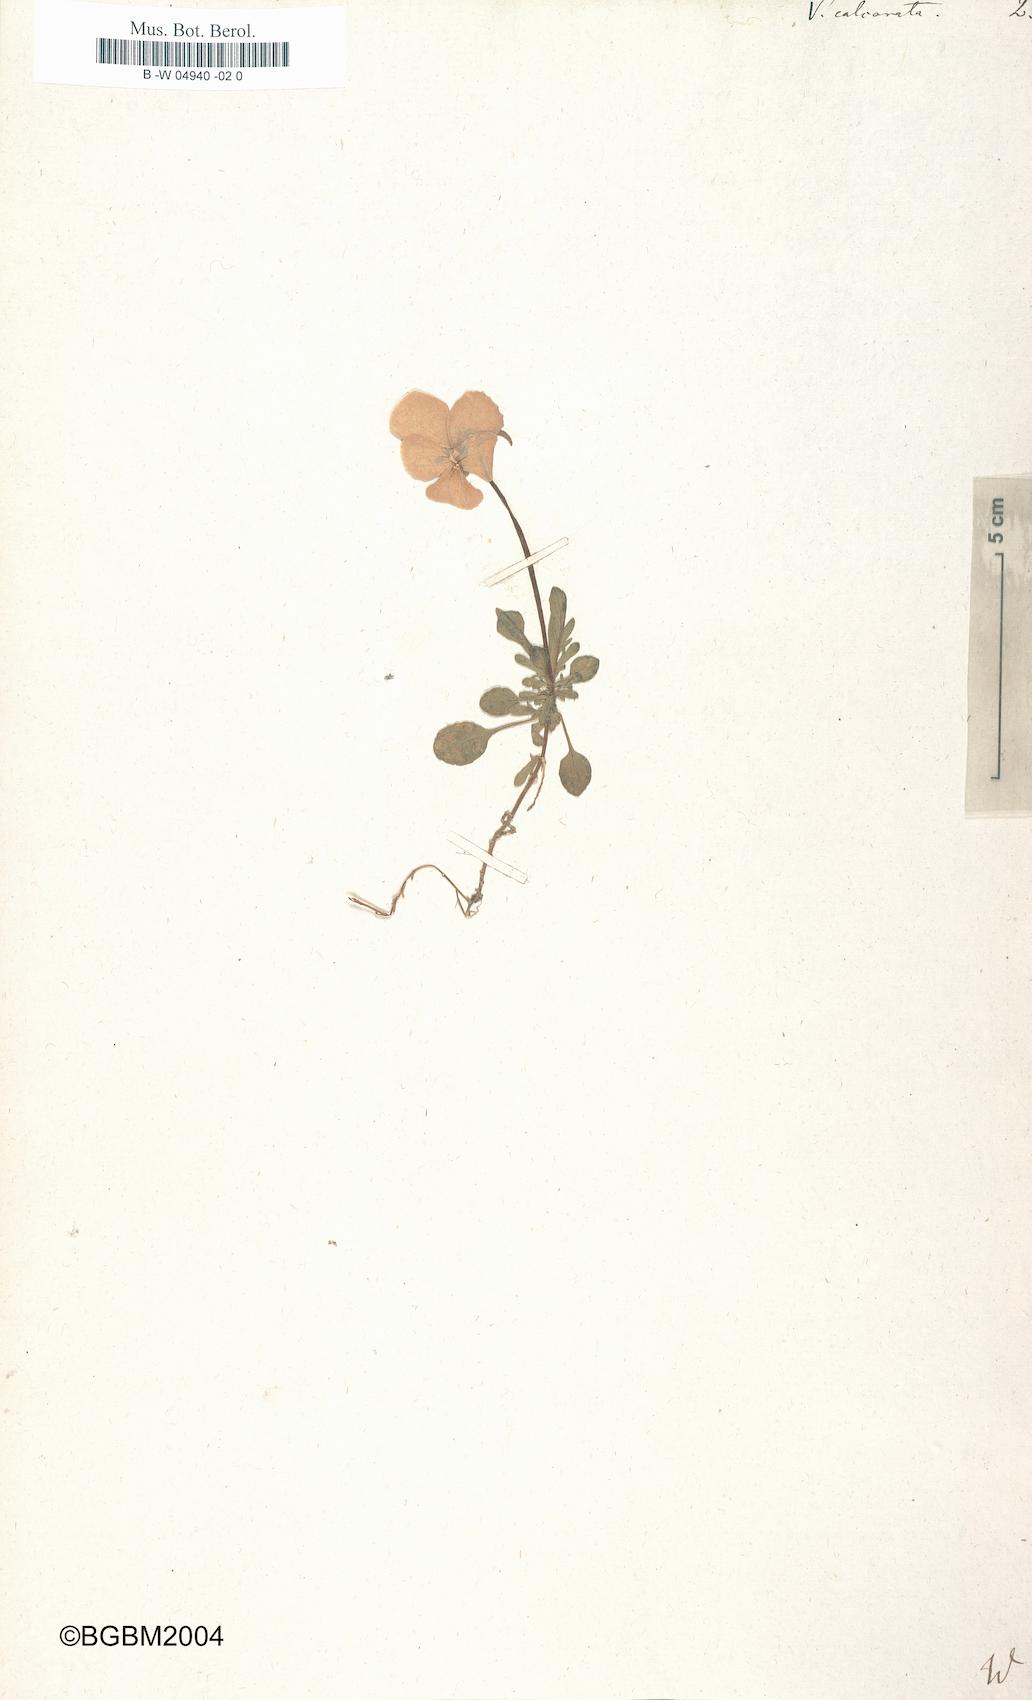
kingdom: Plantae
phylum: Tracheophyta
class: Magnoliopsida
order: Malpighiales
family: Violaceae
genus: Viola
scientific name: Viola calcarata
